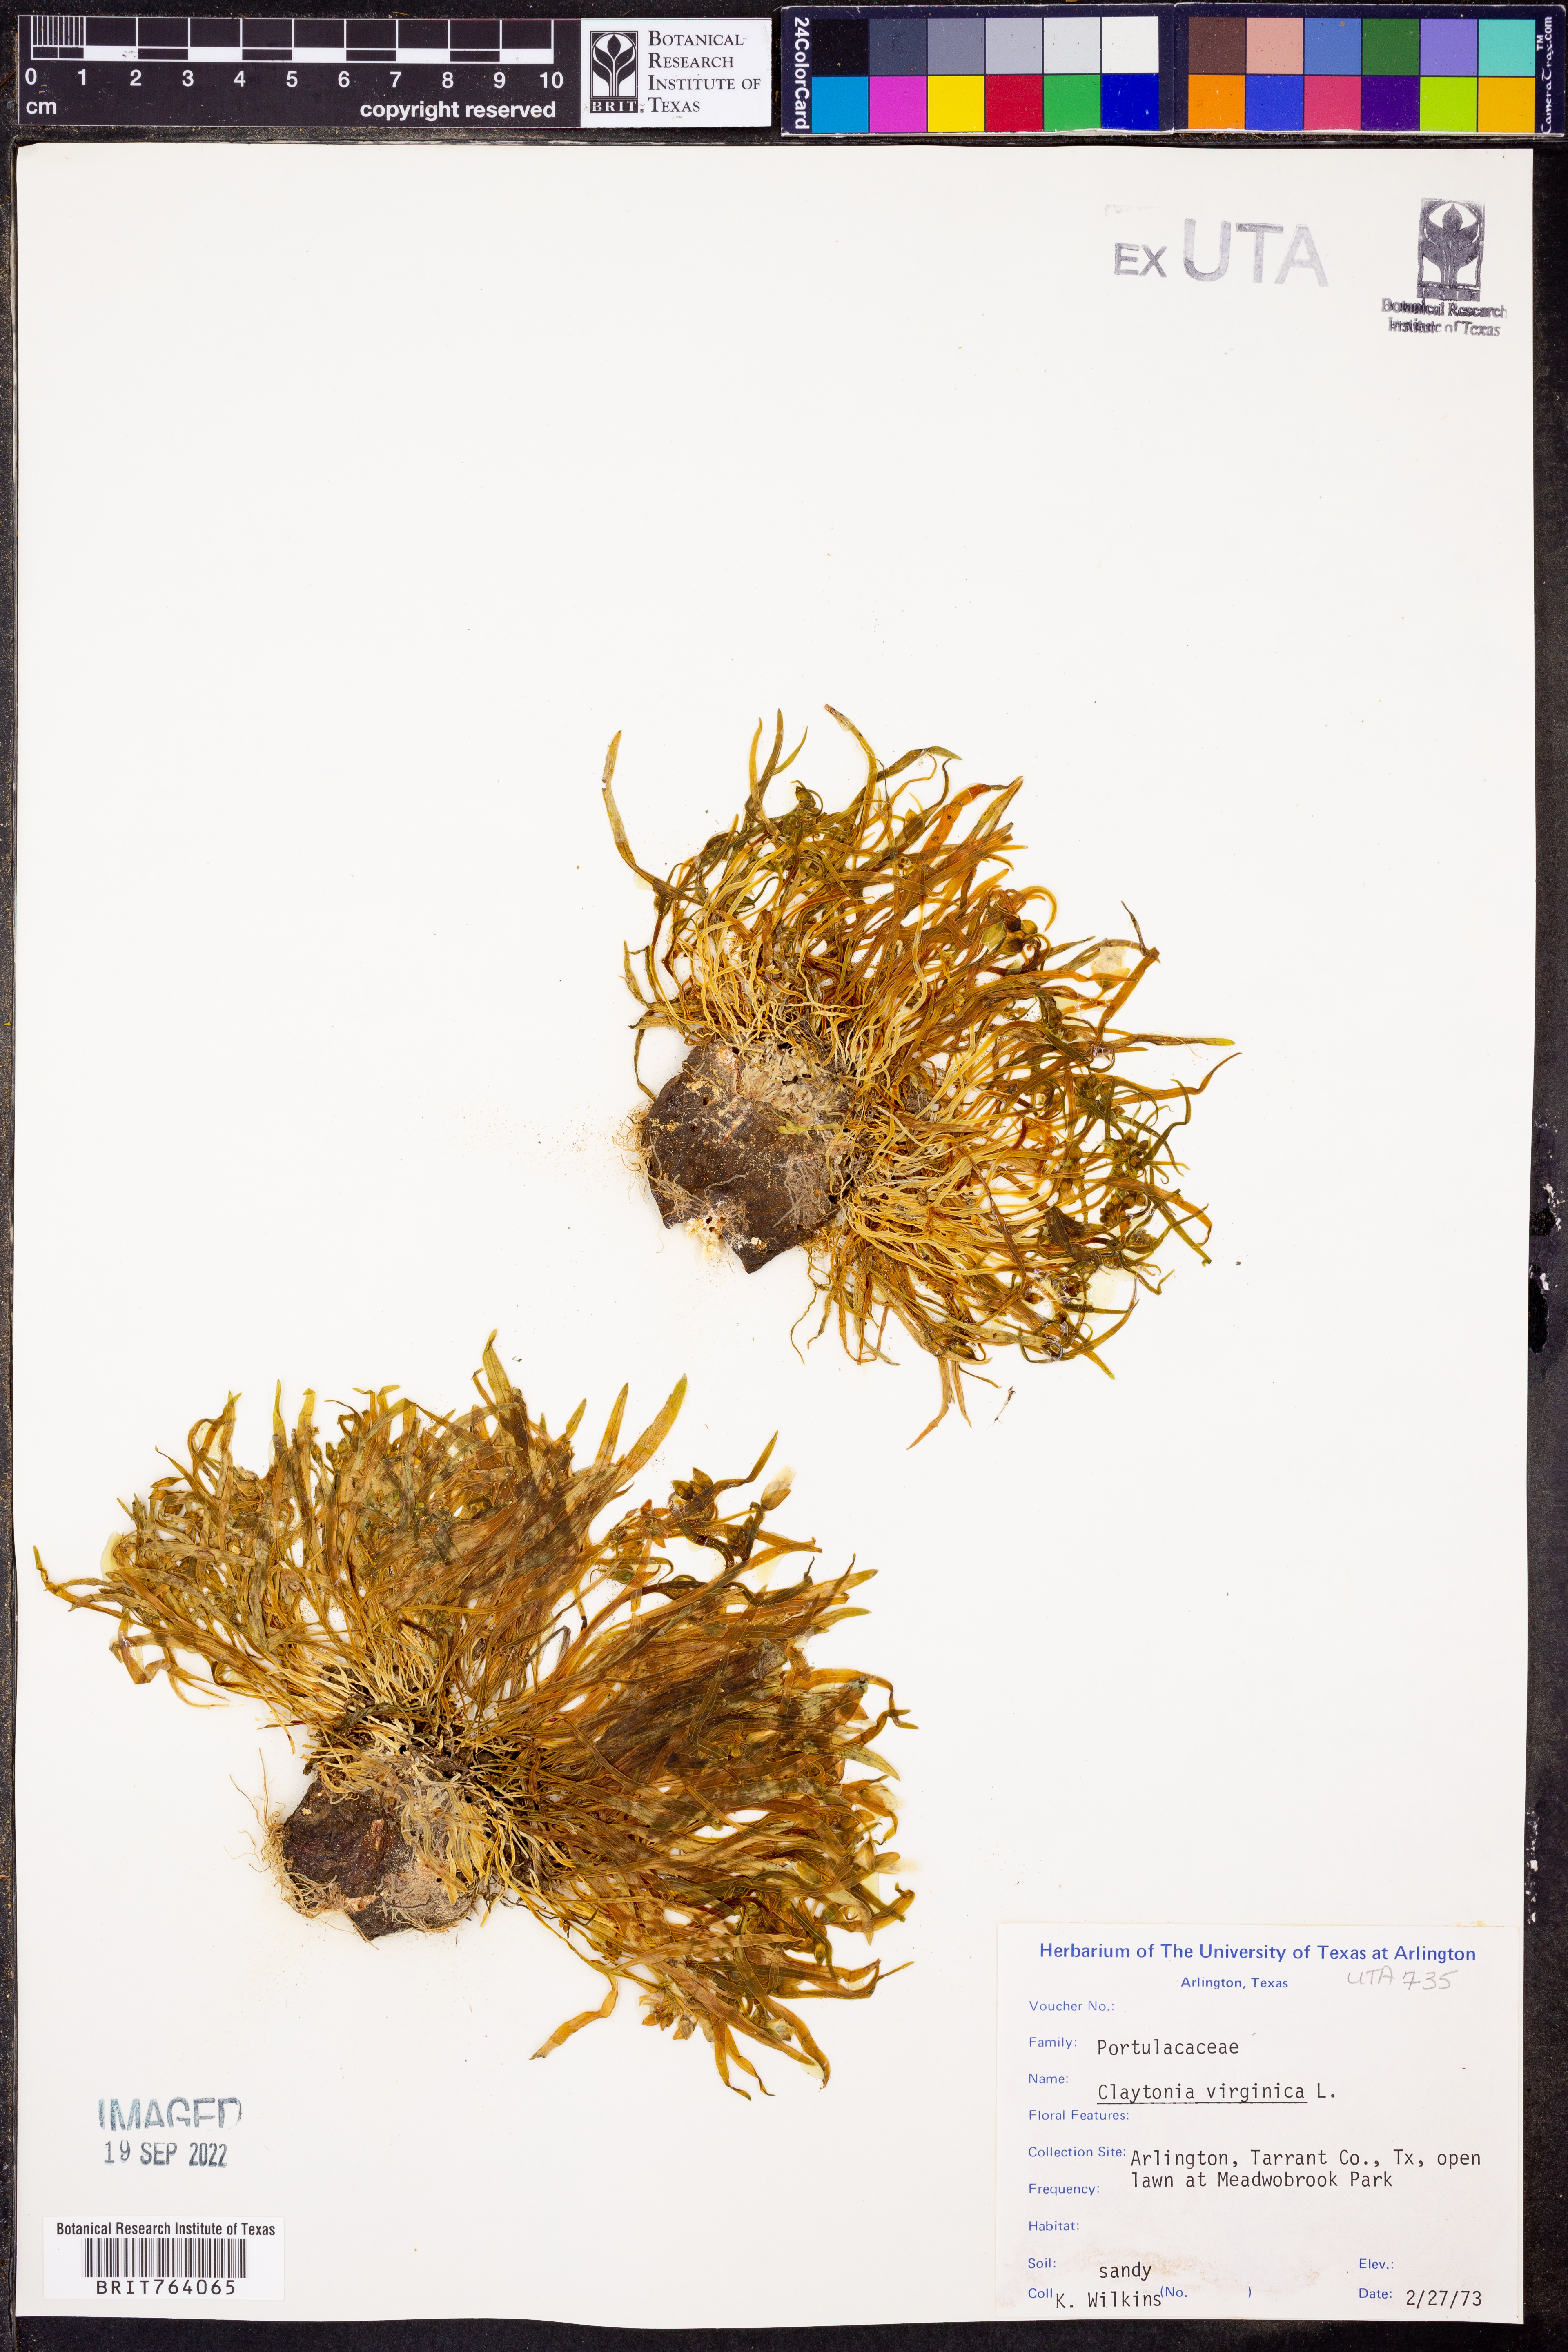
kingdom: Plantae
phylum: Tracheophyta
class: Magnoliopsida
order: Caryophyllales
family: Montiaceae
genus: Claytonia
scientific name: Claytonia virginica
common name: Virginia springbeauty
